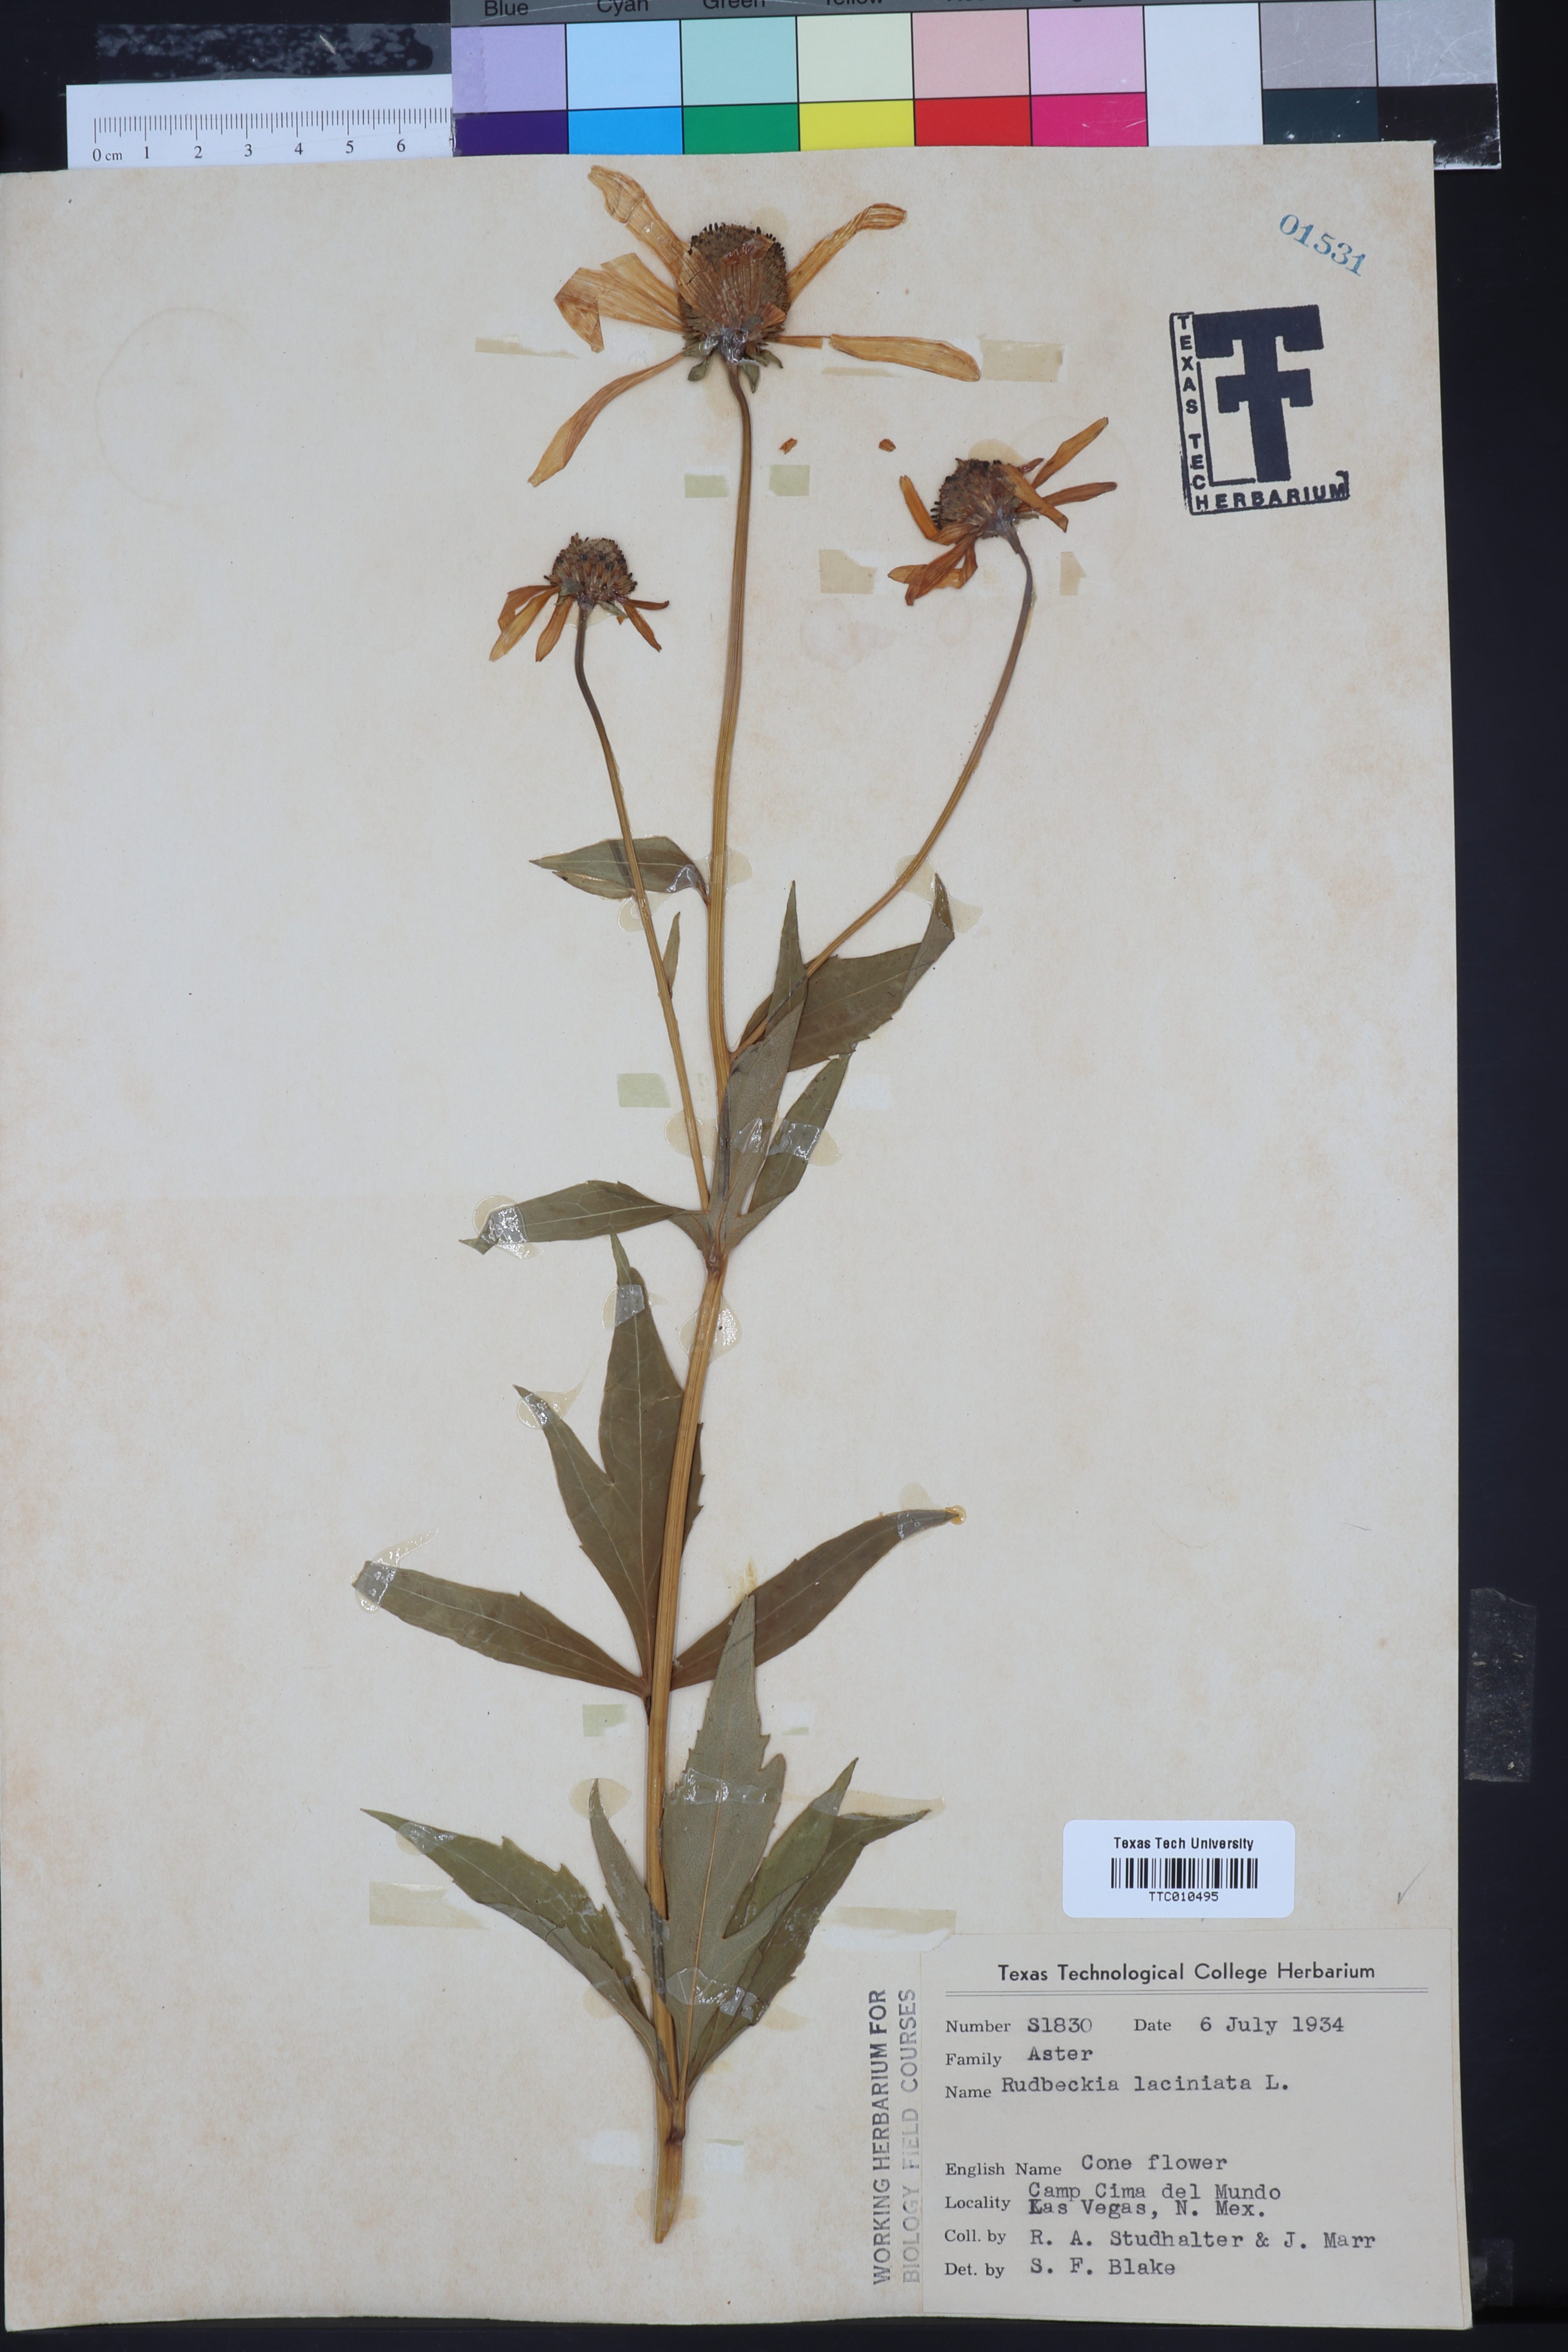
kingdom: Plantae
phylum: Tracheophyta
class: Magnoliopsida
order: Asterales
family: Asteraceae
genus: Rudbeckia
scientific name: Rudbeckia laciniata
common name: Coneflower
